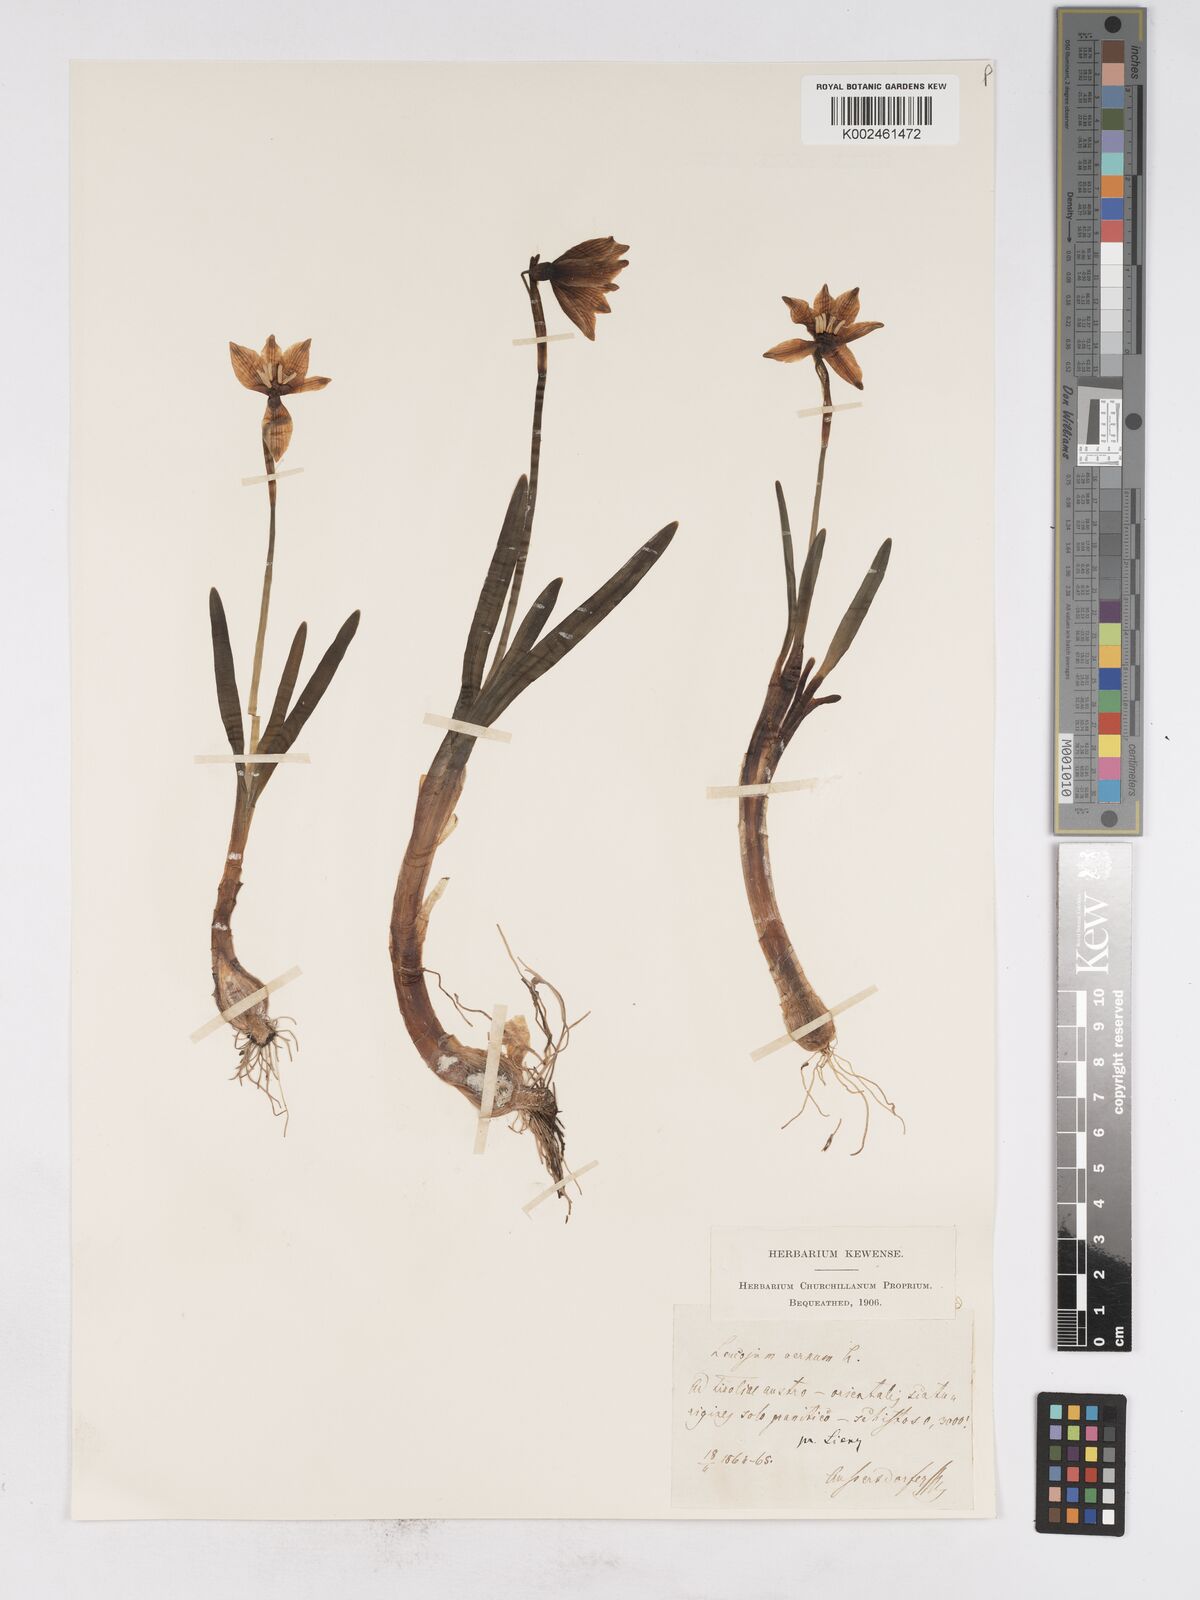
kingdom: Plantae
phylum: Tracheophyta
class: Liliopsida
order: Asparagales
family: Amaryllidaceae
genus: Leucojum
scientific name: Leucojum vernum
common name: Spring snowflake
